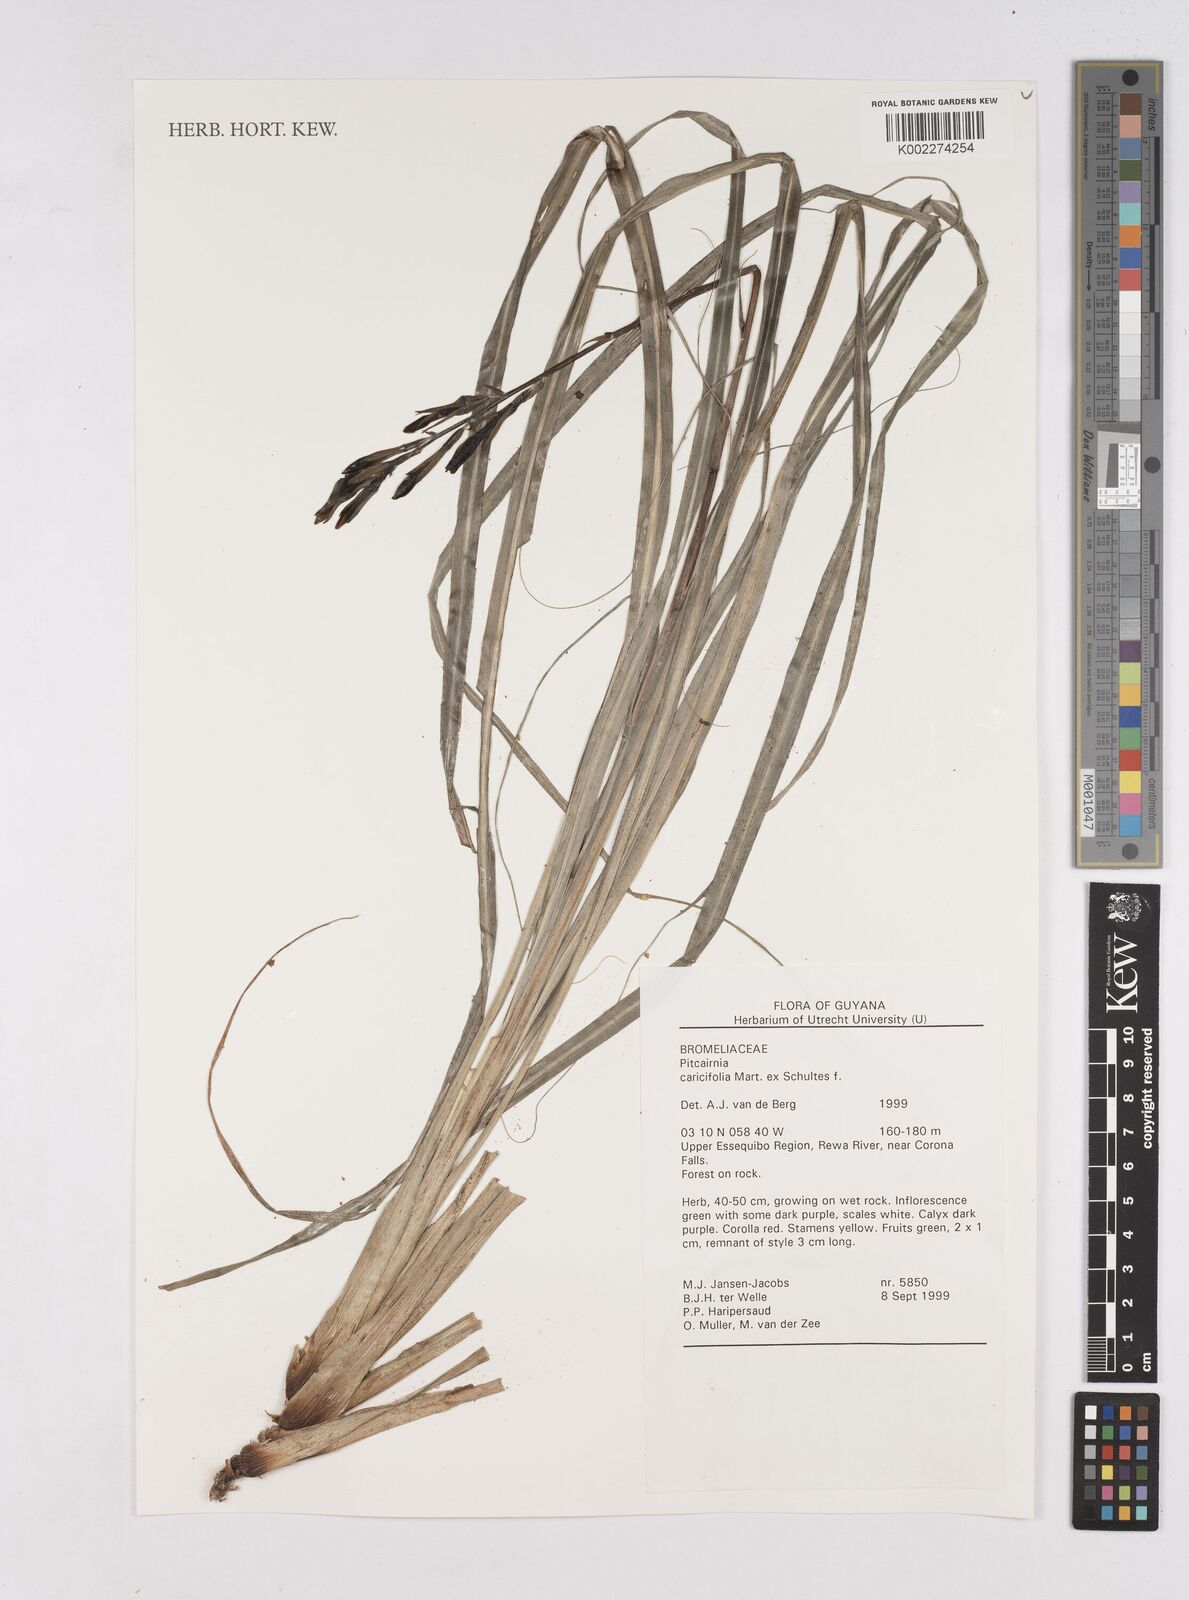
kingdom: Plantae
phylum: Tracheophyta
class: Liliopsida
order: Poales
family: Bromeliaceae
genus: Pitcairnia
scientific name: Pitcairnia caricifolia
